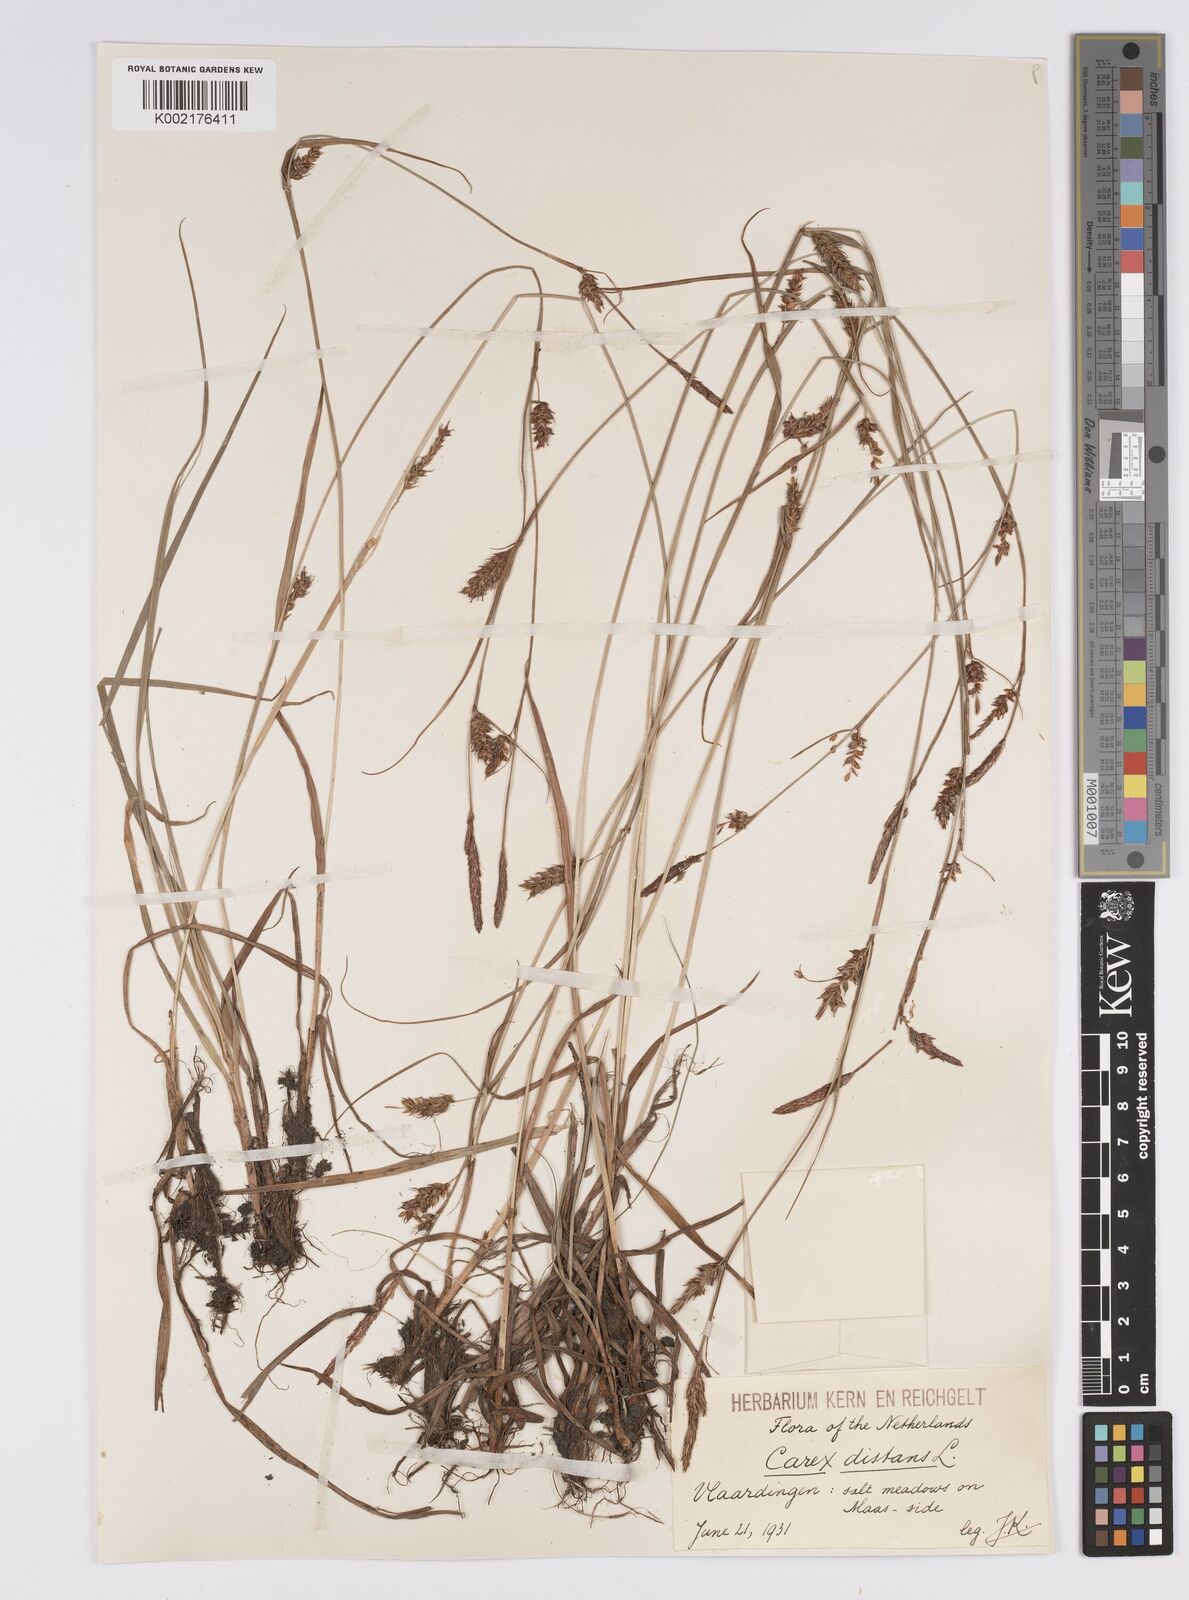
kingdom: Plantae
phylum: Tracheophyta
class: Liliopsida
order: Poales
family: Cyperaceae
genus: Carex
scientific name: Carex distans
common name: Distant sedge
